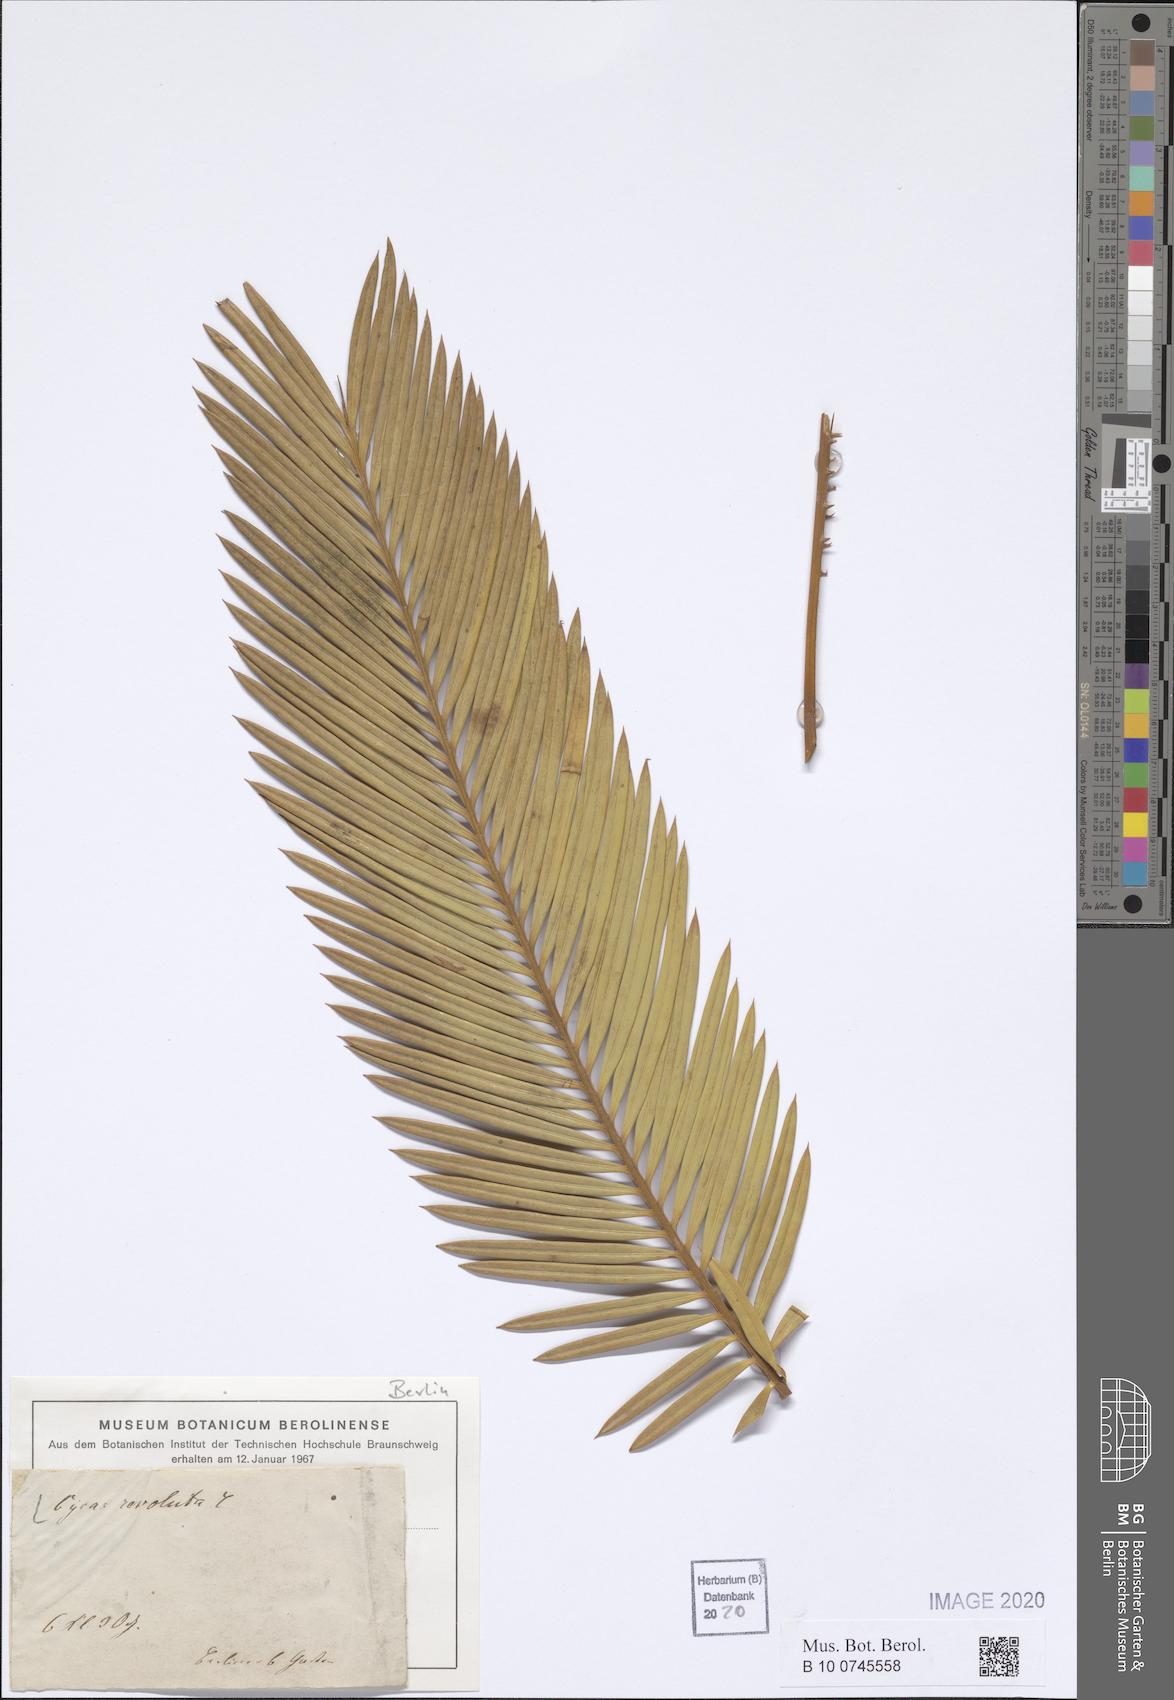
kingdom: Plantae
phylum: Tracheophyta
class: Cycadopsida
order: Cycadales
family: Cycadaceae
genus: Cycas
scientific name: Cycas revoluta
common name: Sago palm
